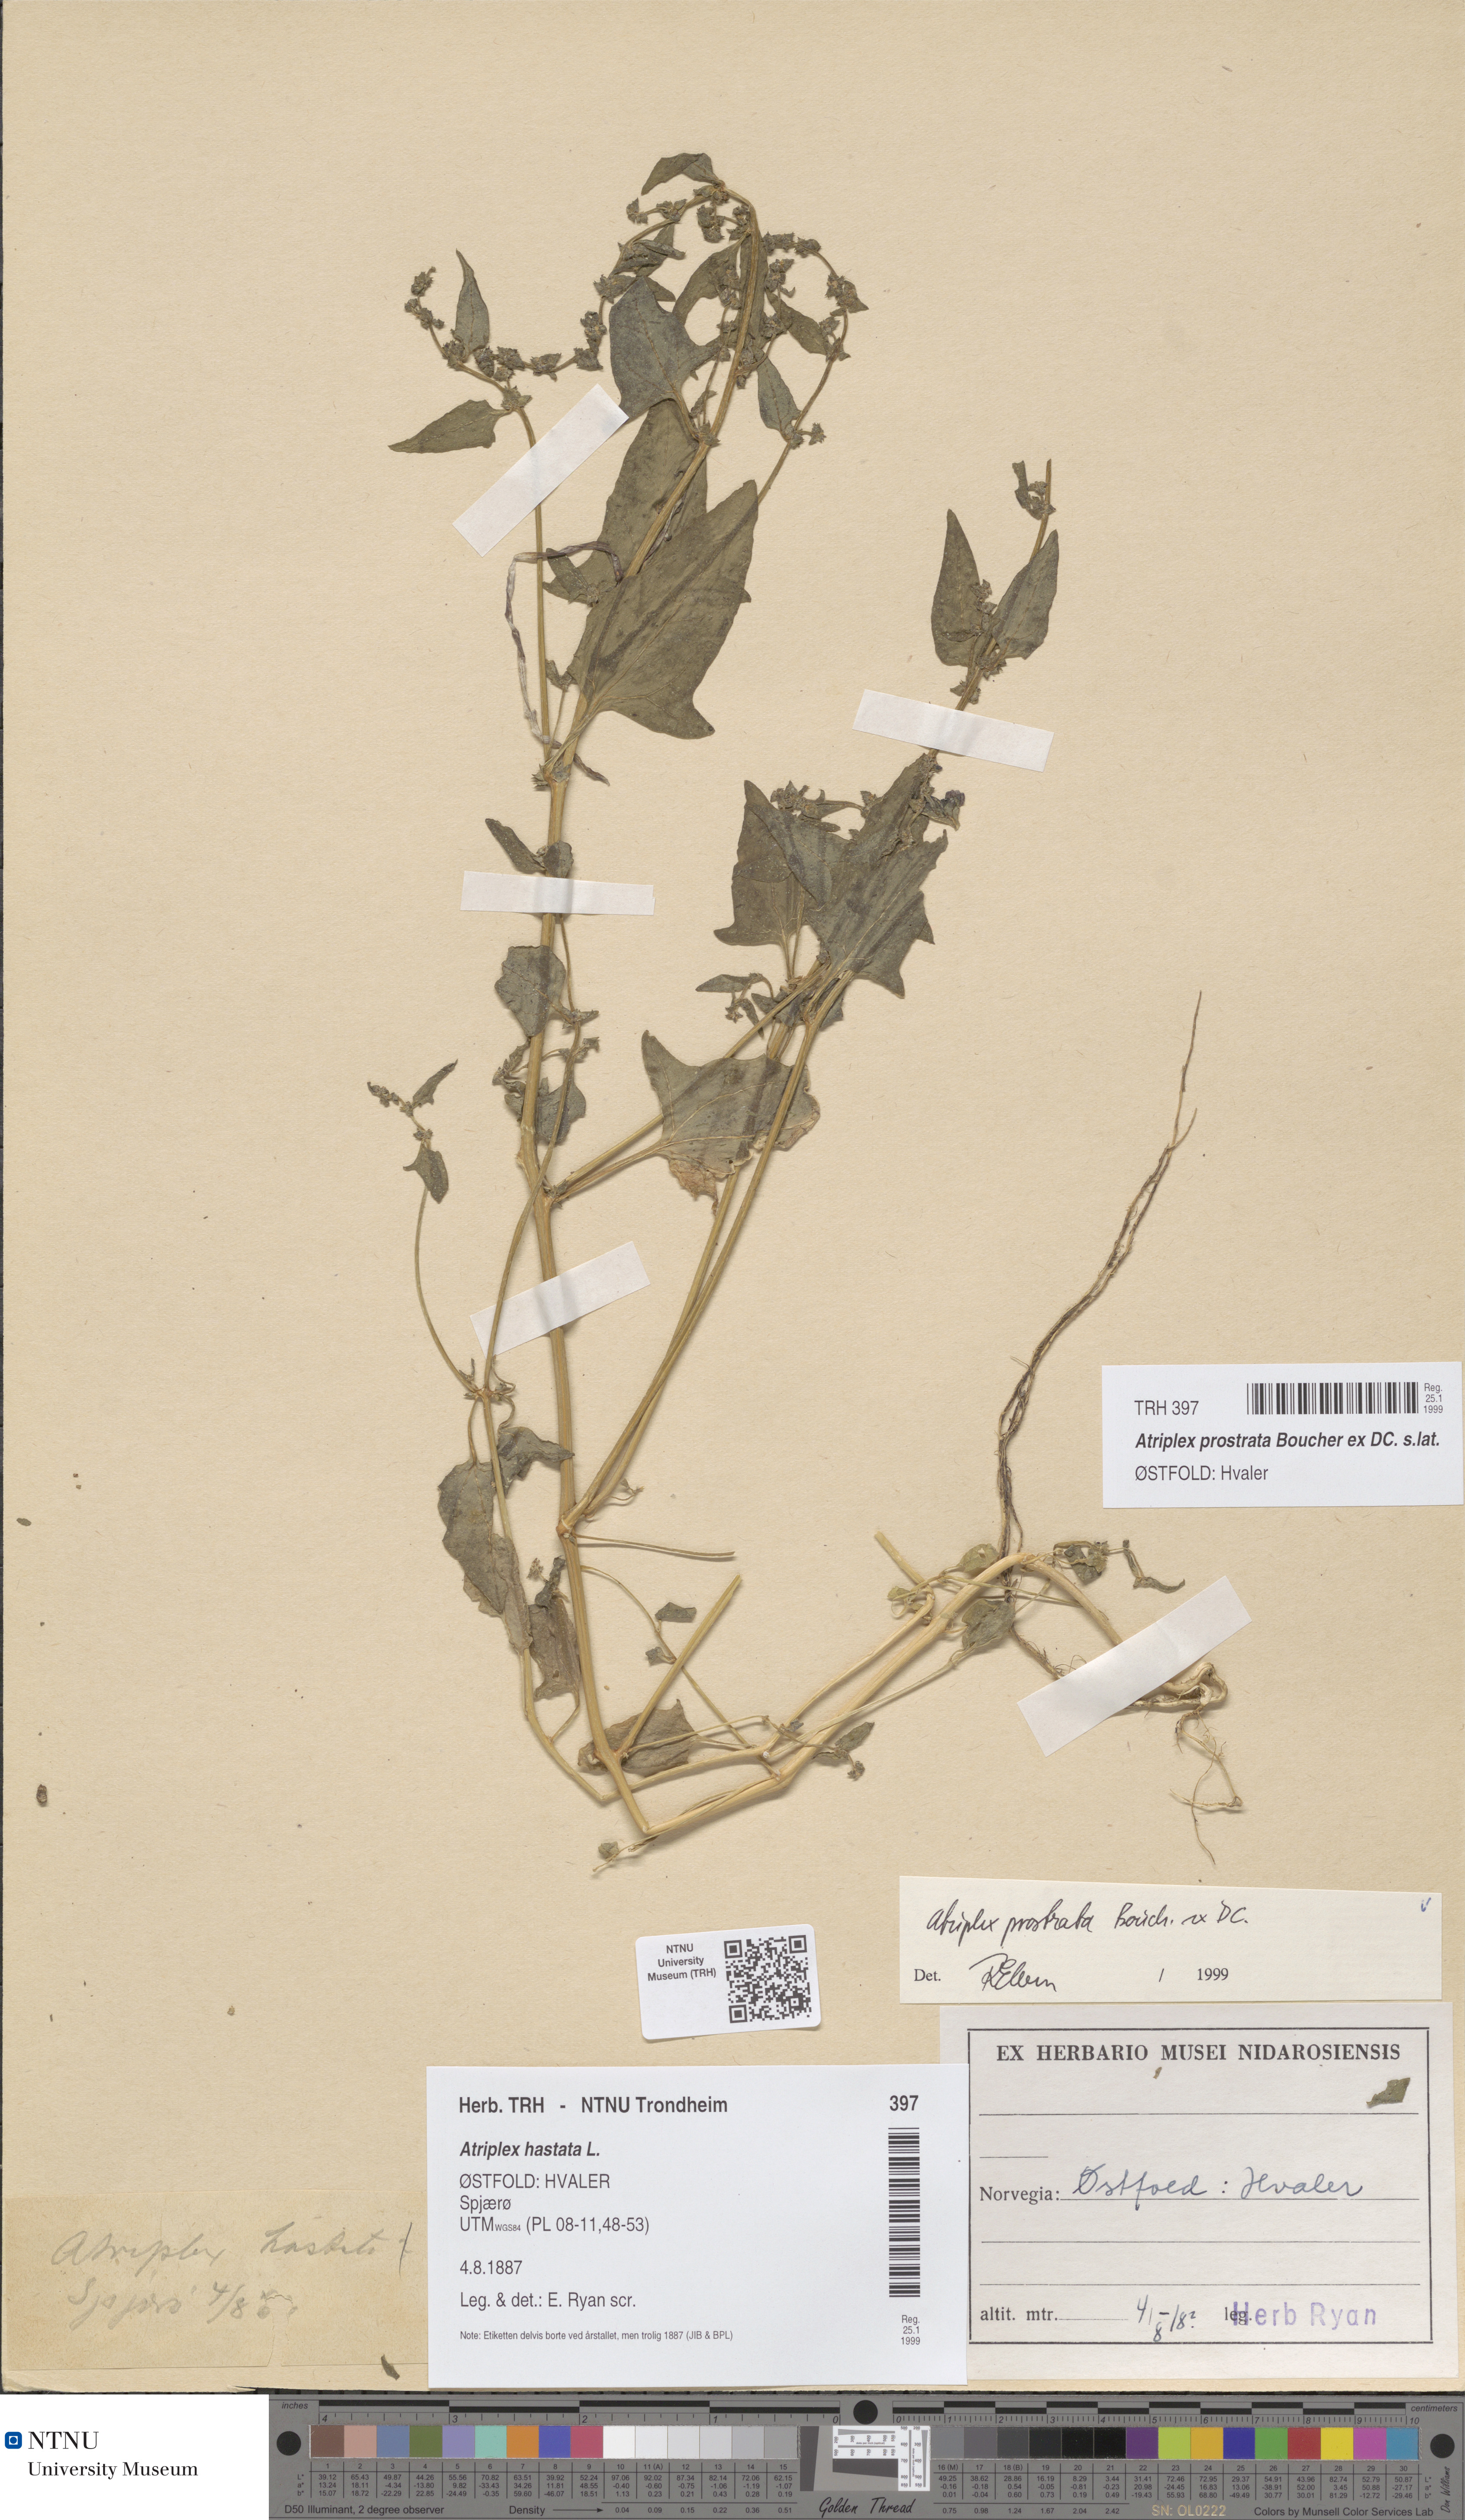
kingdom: Plantae
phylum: Tracheophyta
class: Magnoliopsida
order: Caryophyllales
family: Amaranthaceae
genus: Atriplex
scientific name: Atriplex prostrata
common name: Spear-leaved orache
